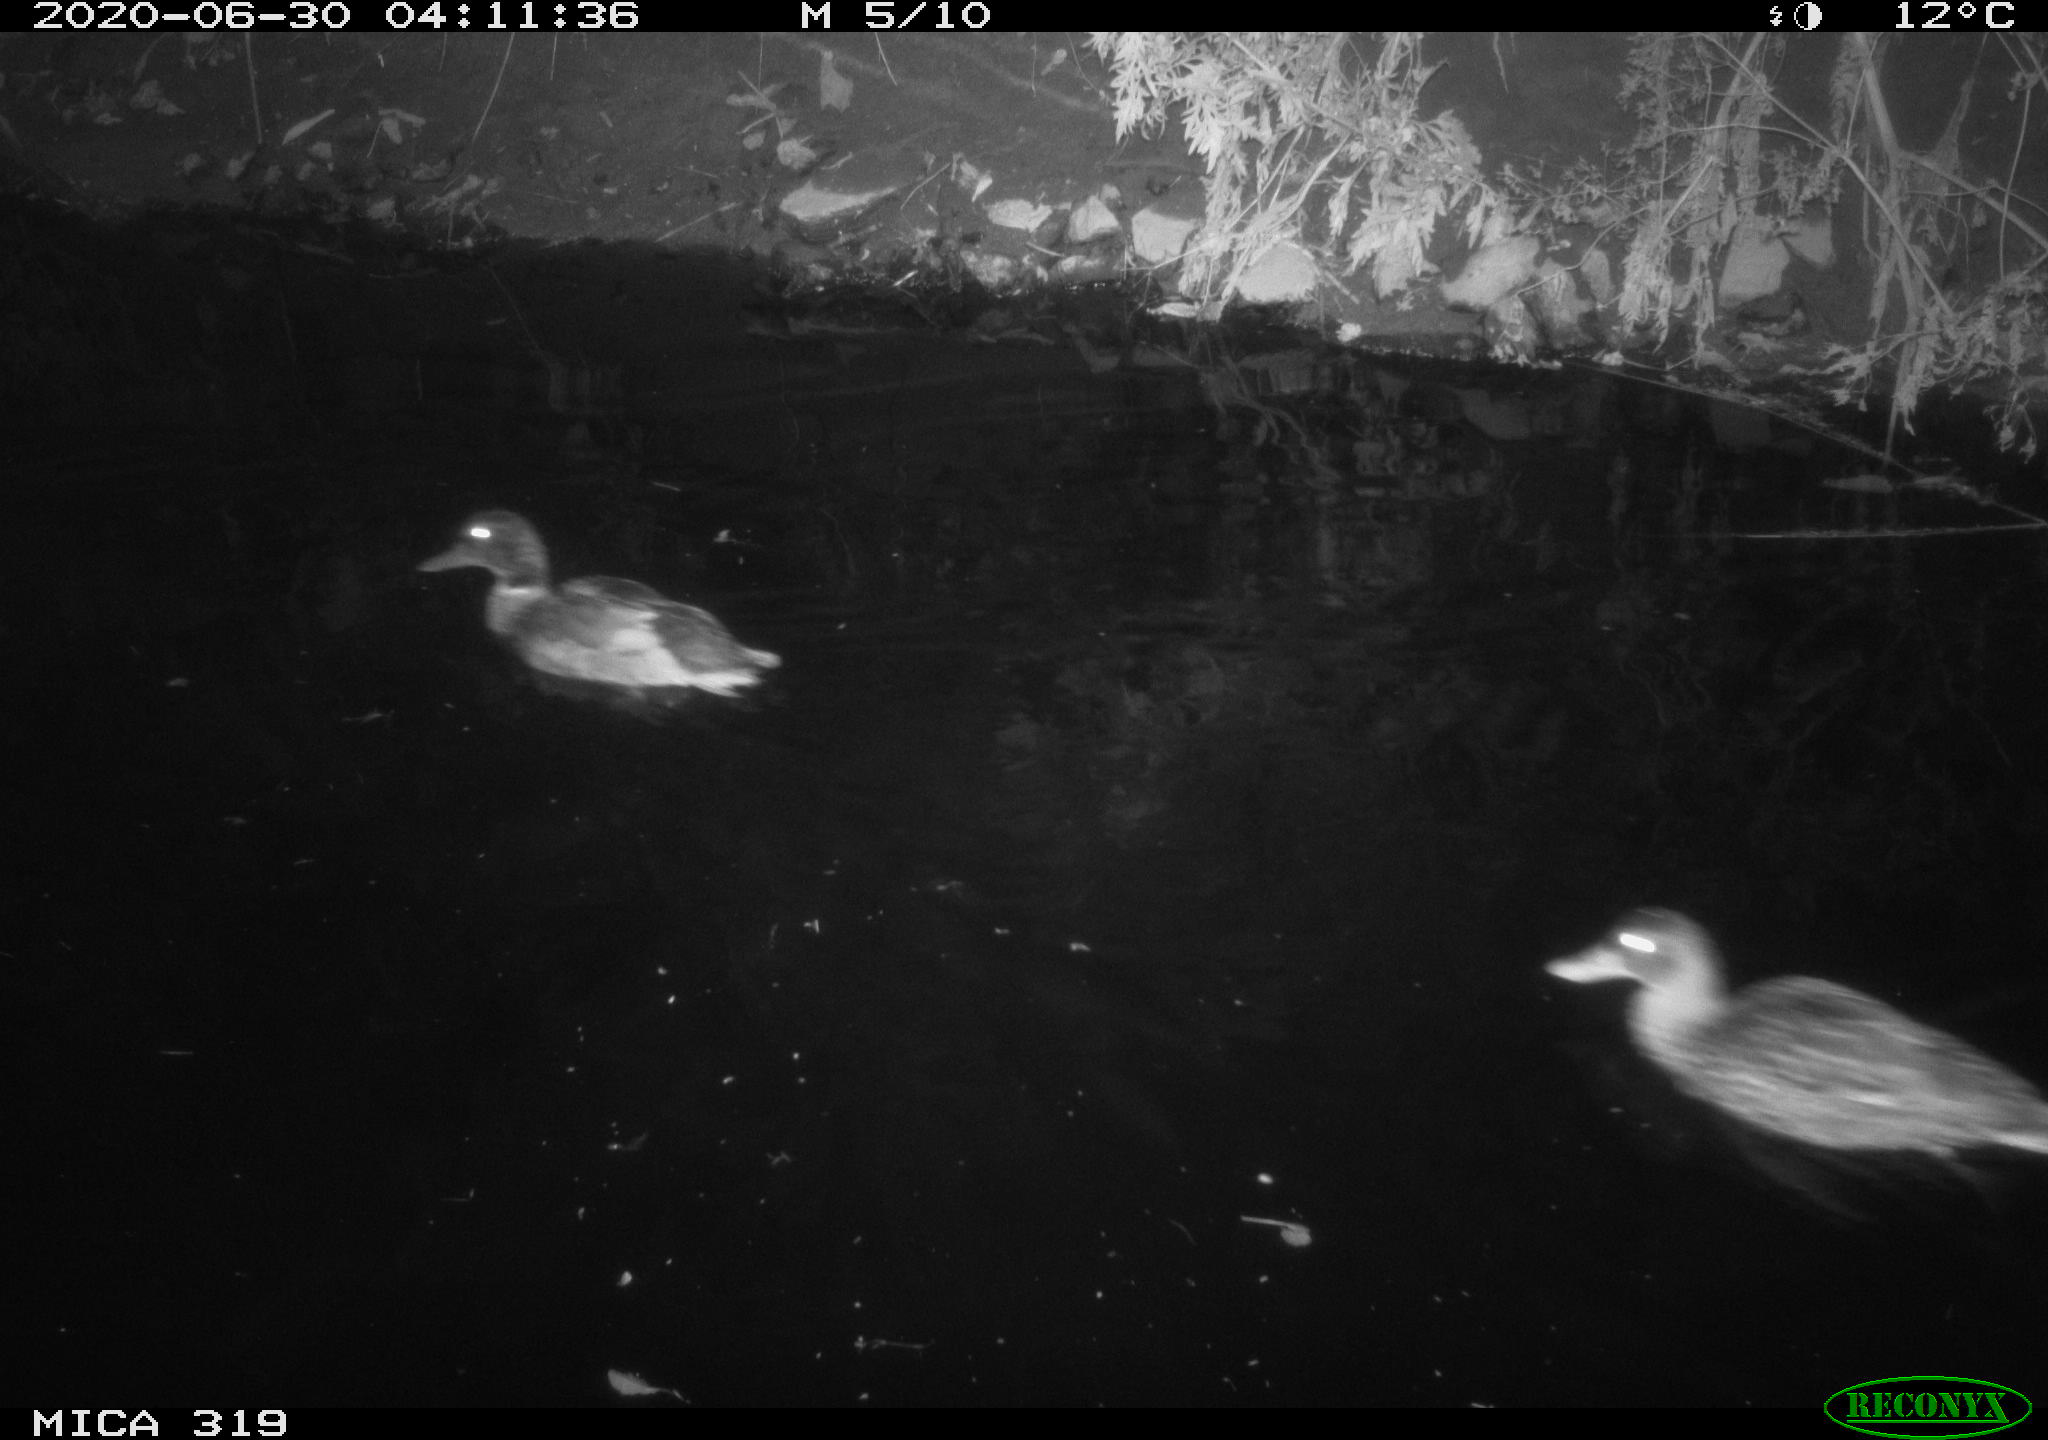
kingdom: Animalia
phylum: Chordata
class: Aves
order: Anseriformes
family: Anatidae
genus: Anas
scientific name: Anas platyrhynchos
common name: Mallard
